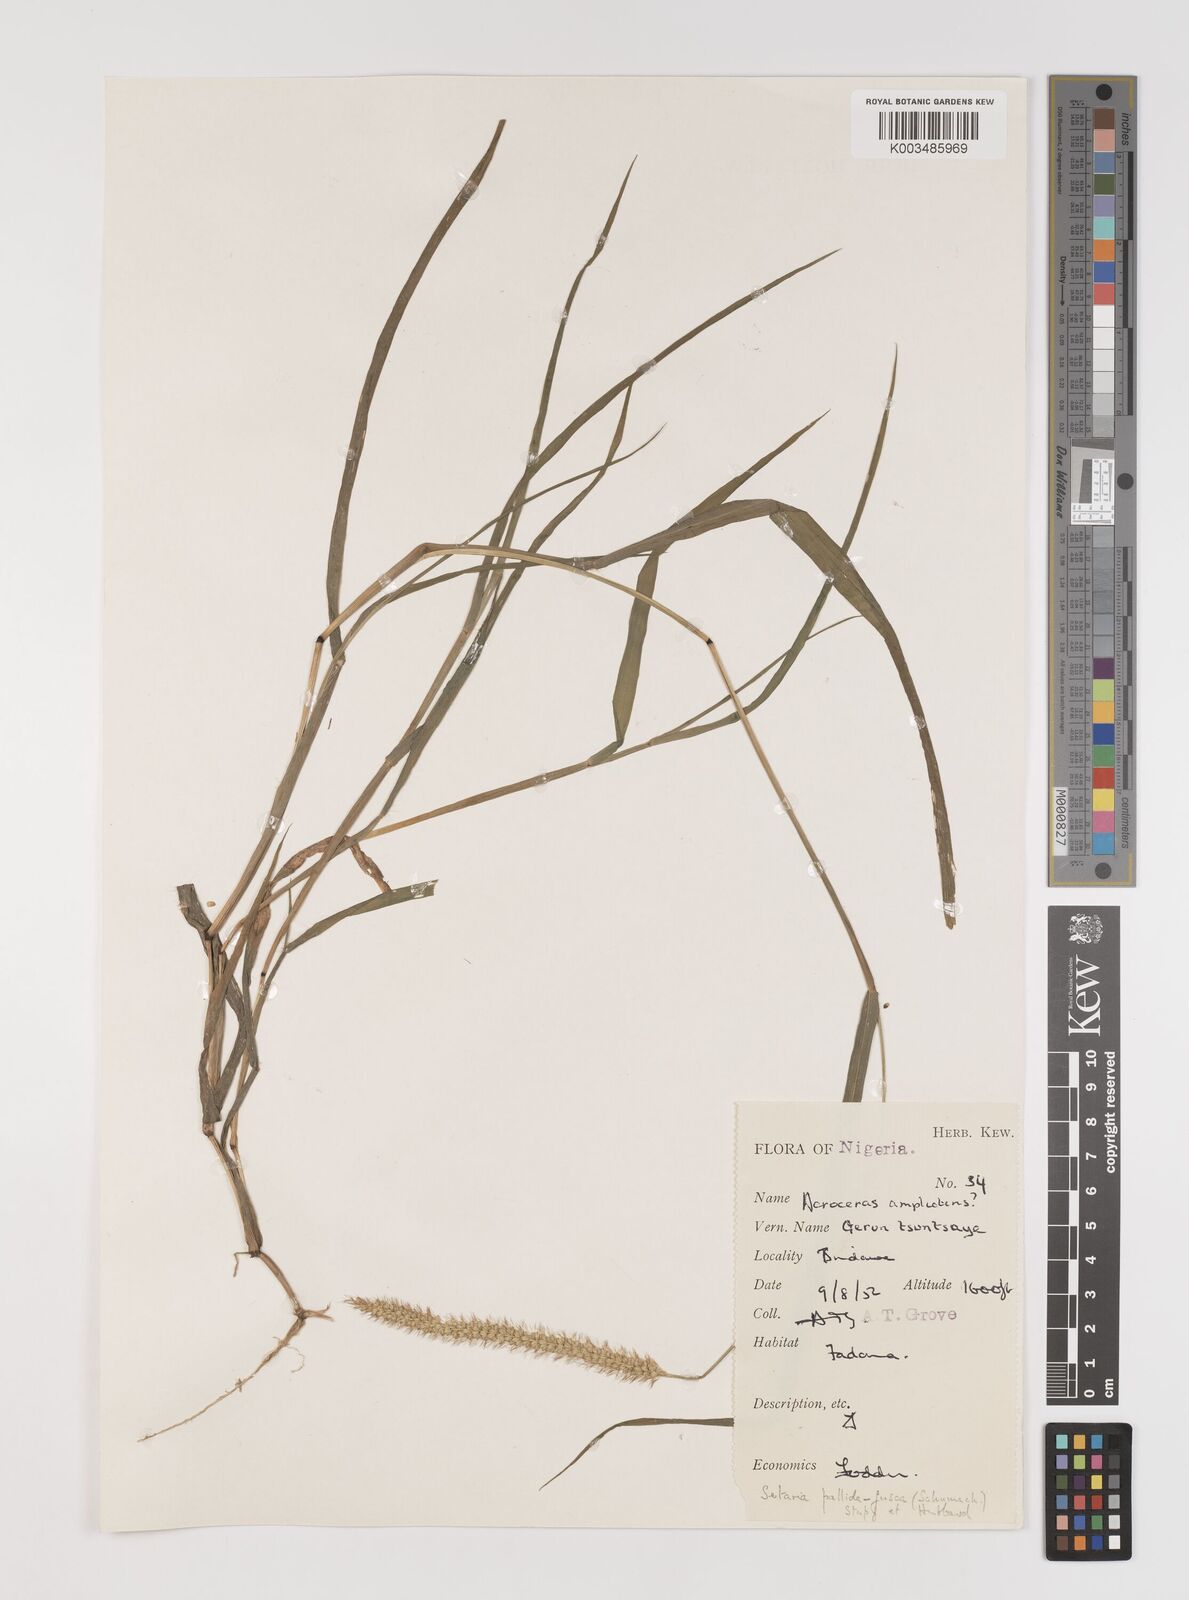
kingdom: Plantae
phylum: Tracheophyta
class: Liliopsida
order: Poales
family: Poaceae
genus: Setaria
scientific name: Setaria pumila
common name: Yellow bristle-grass
